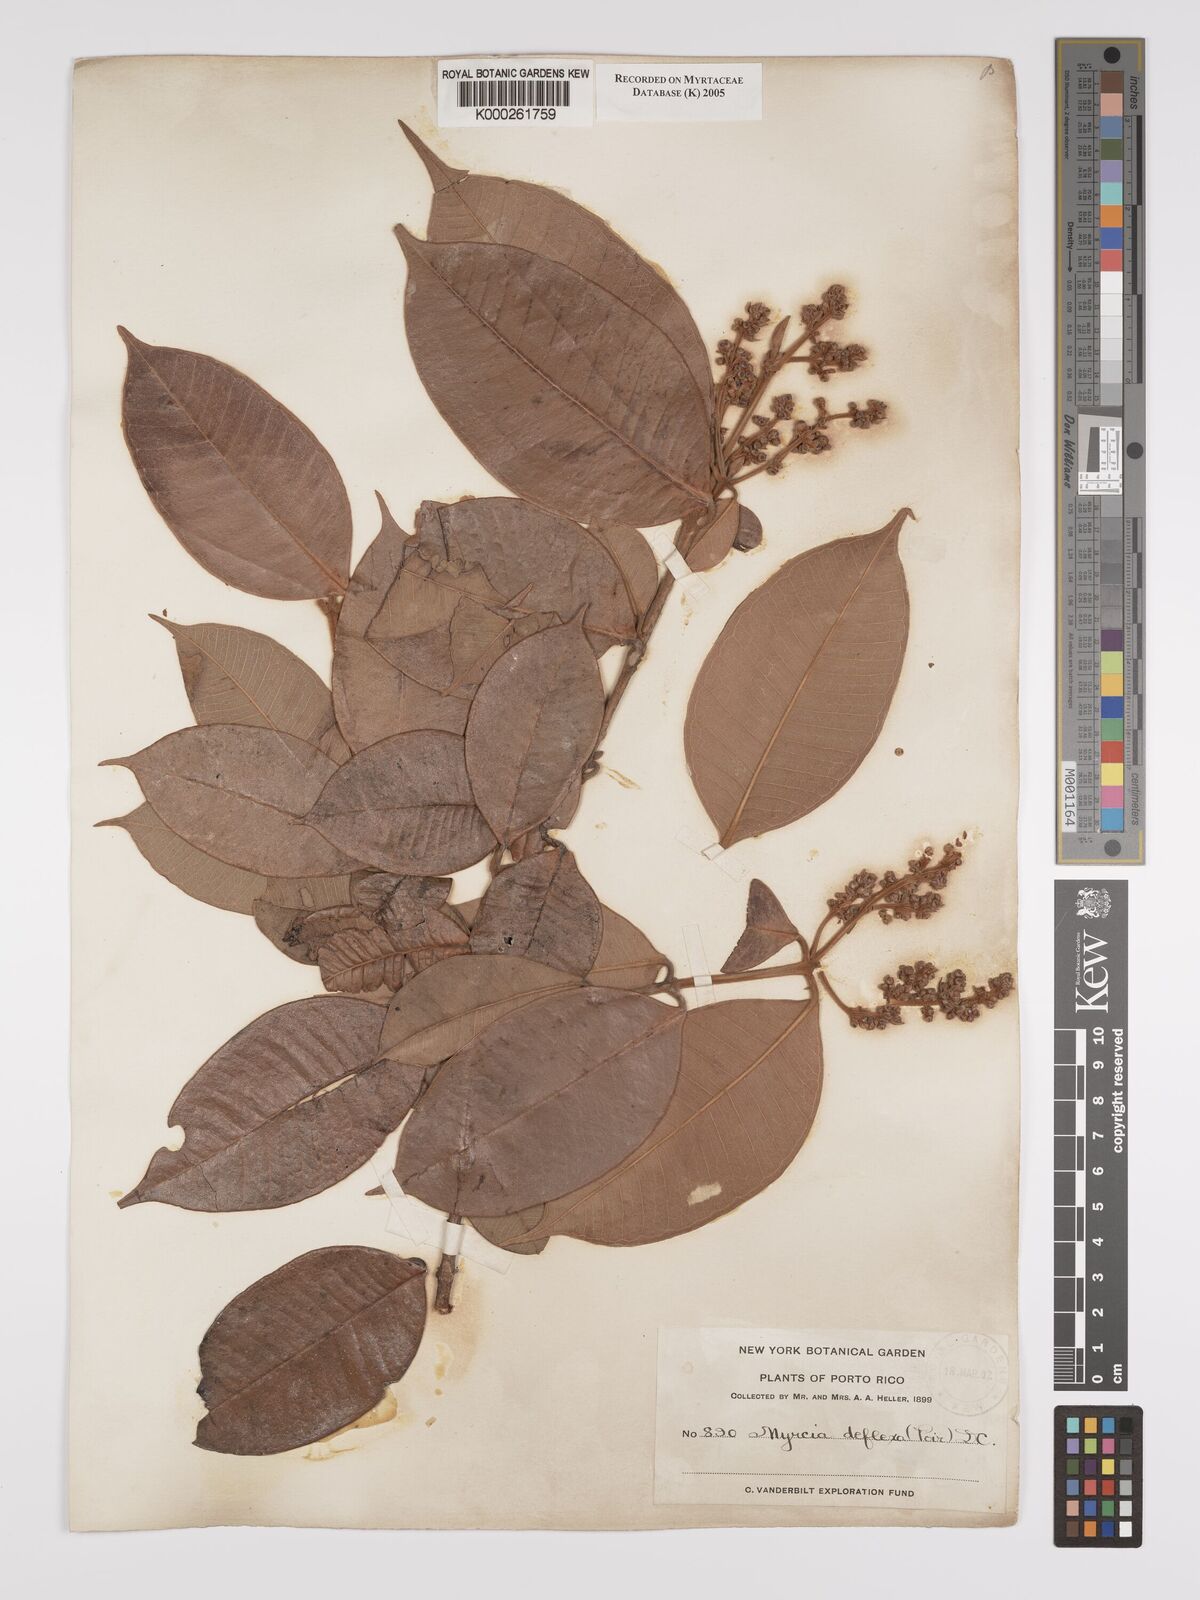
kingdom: Plantae
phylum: Tracheophyta
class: Magnoliopsida
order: Myrtales
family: Myrtaceae
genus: Myrcia
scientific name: Myrcia deflexa
